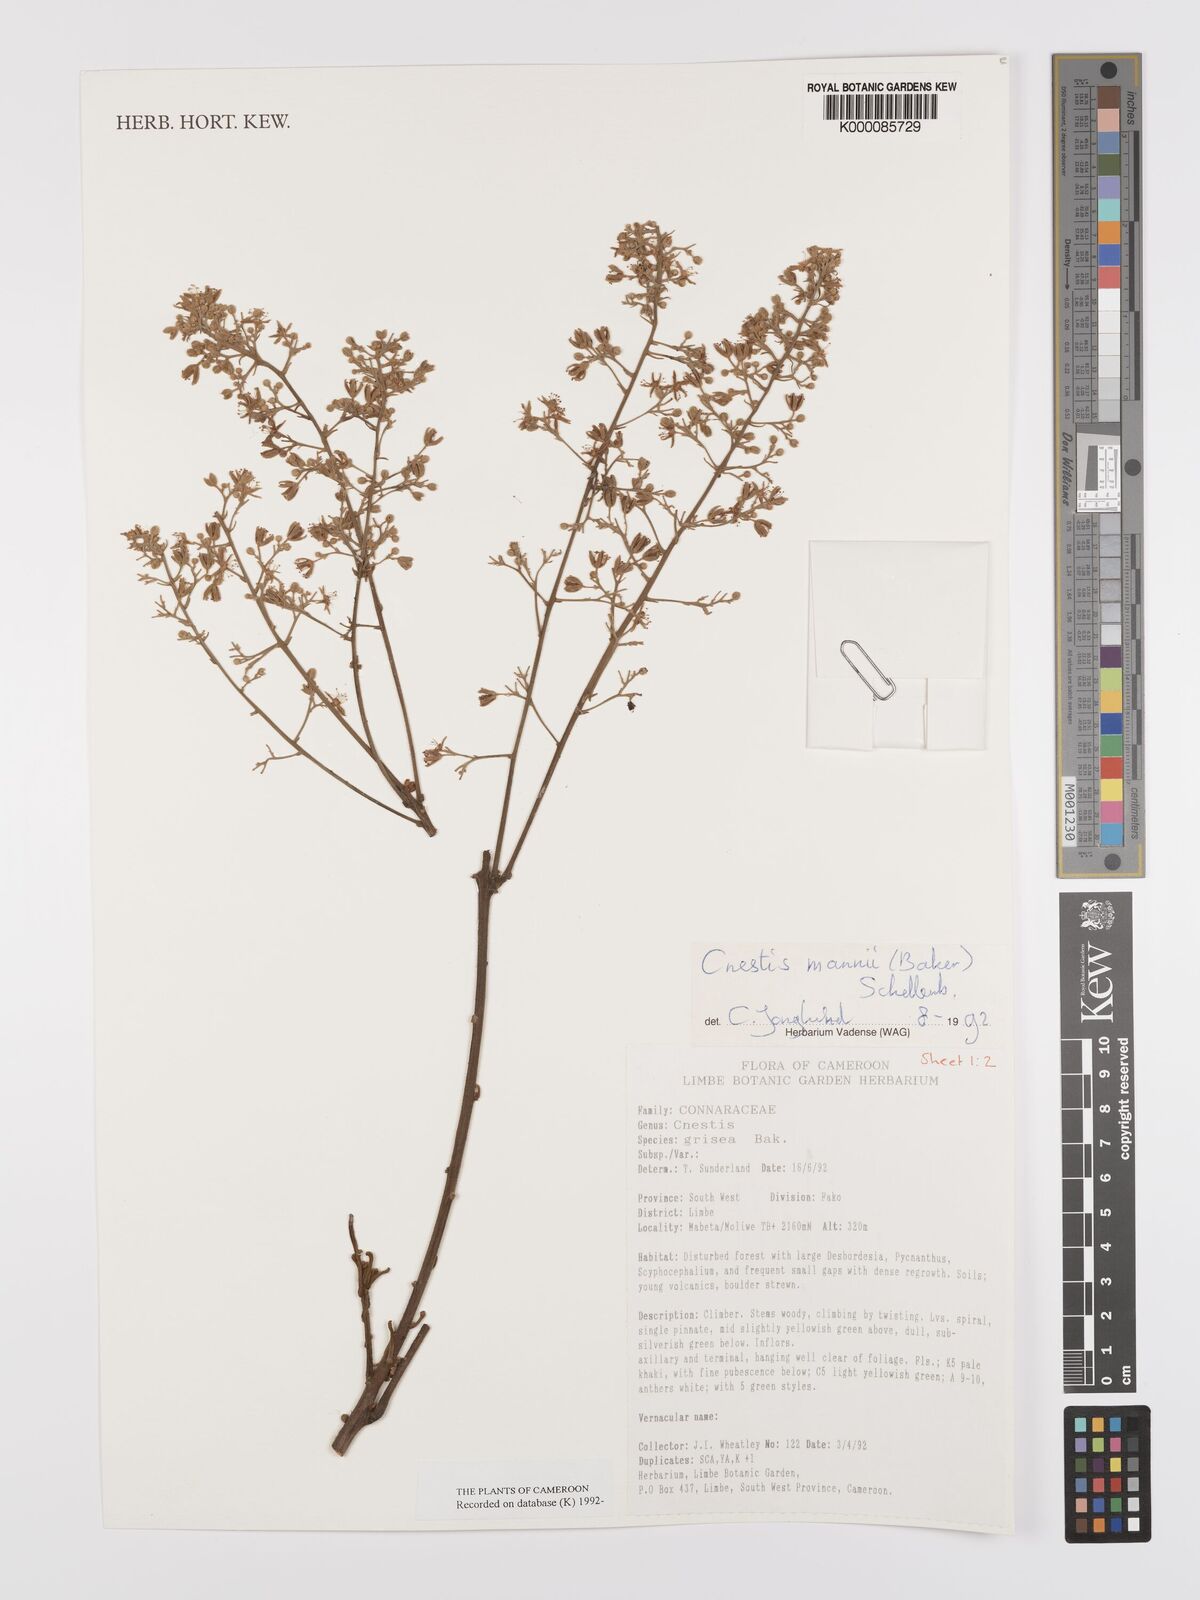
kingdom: Plantae
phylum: Tracheophyta
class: Magnoliopsida
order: Oxalidales
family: Connaraceae
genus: Cnestis
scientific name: Cnestis mannii
